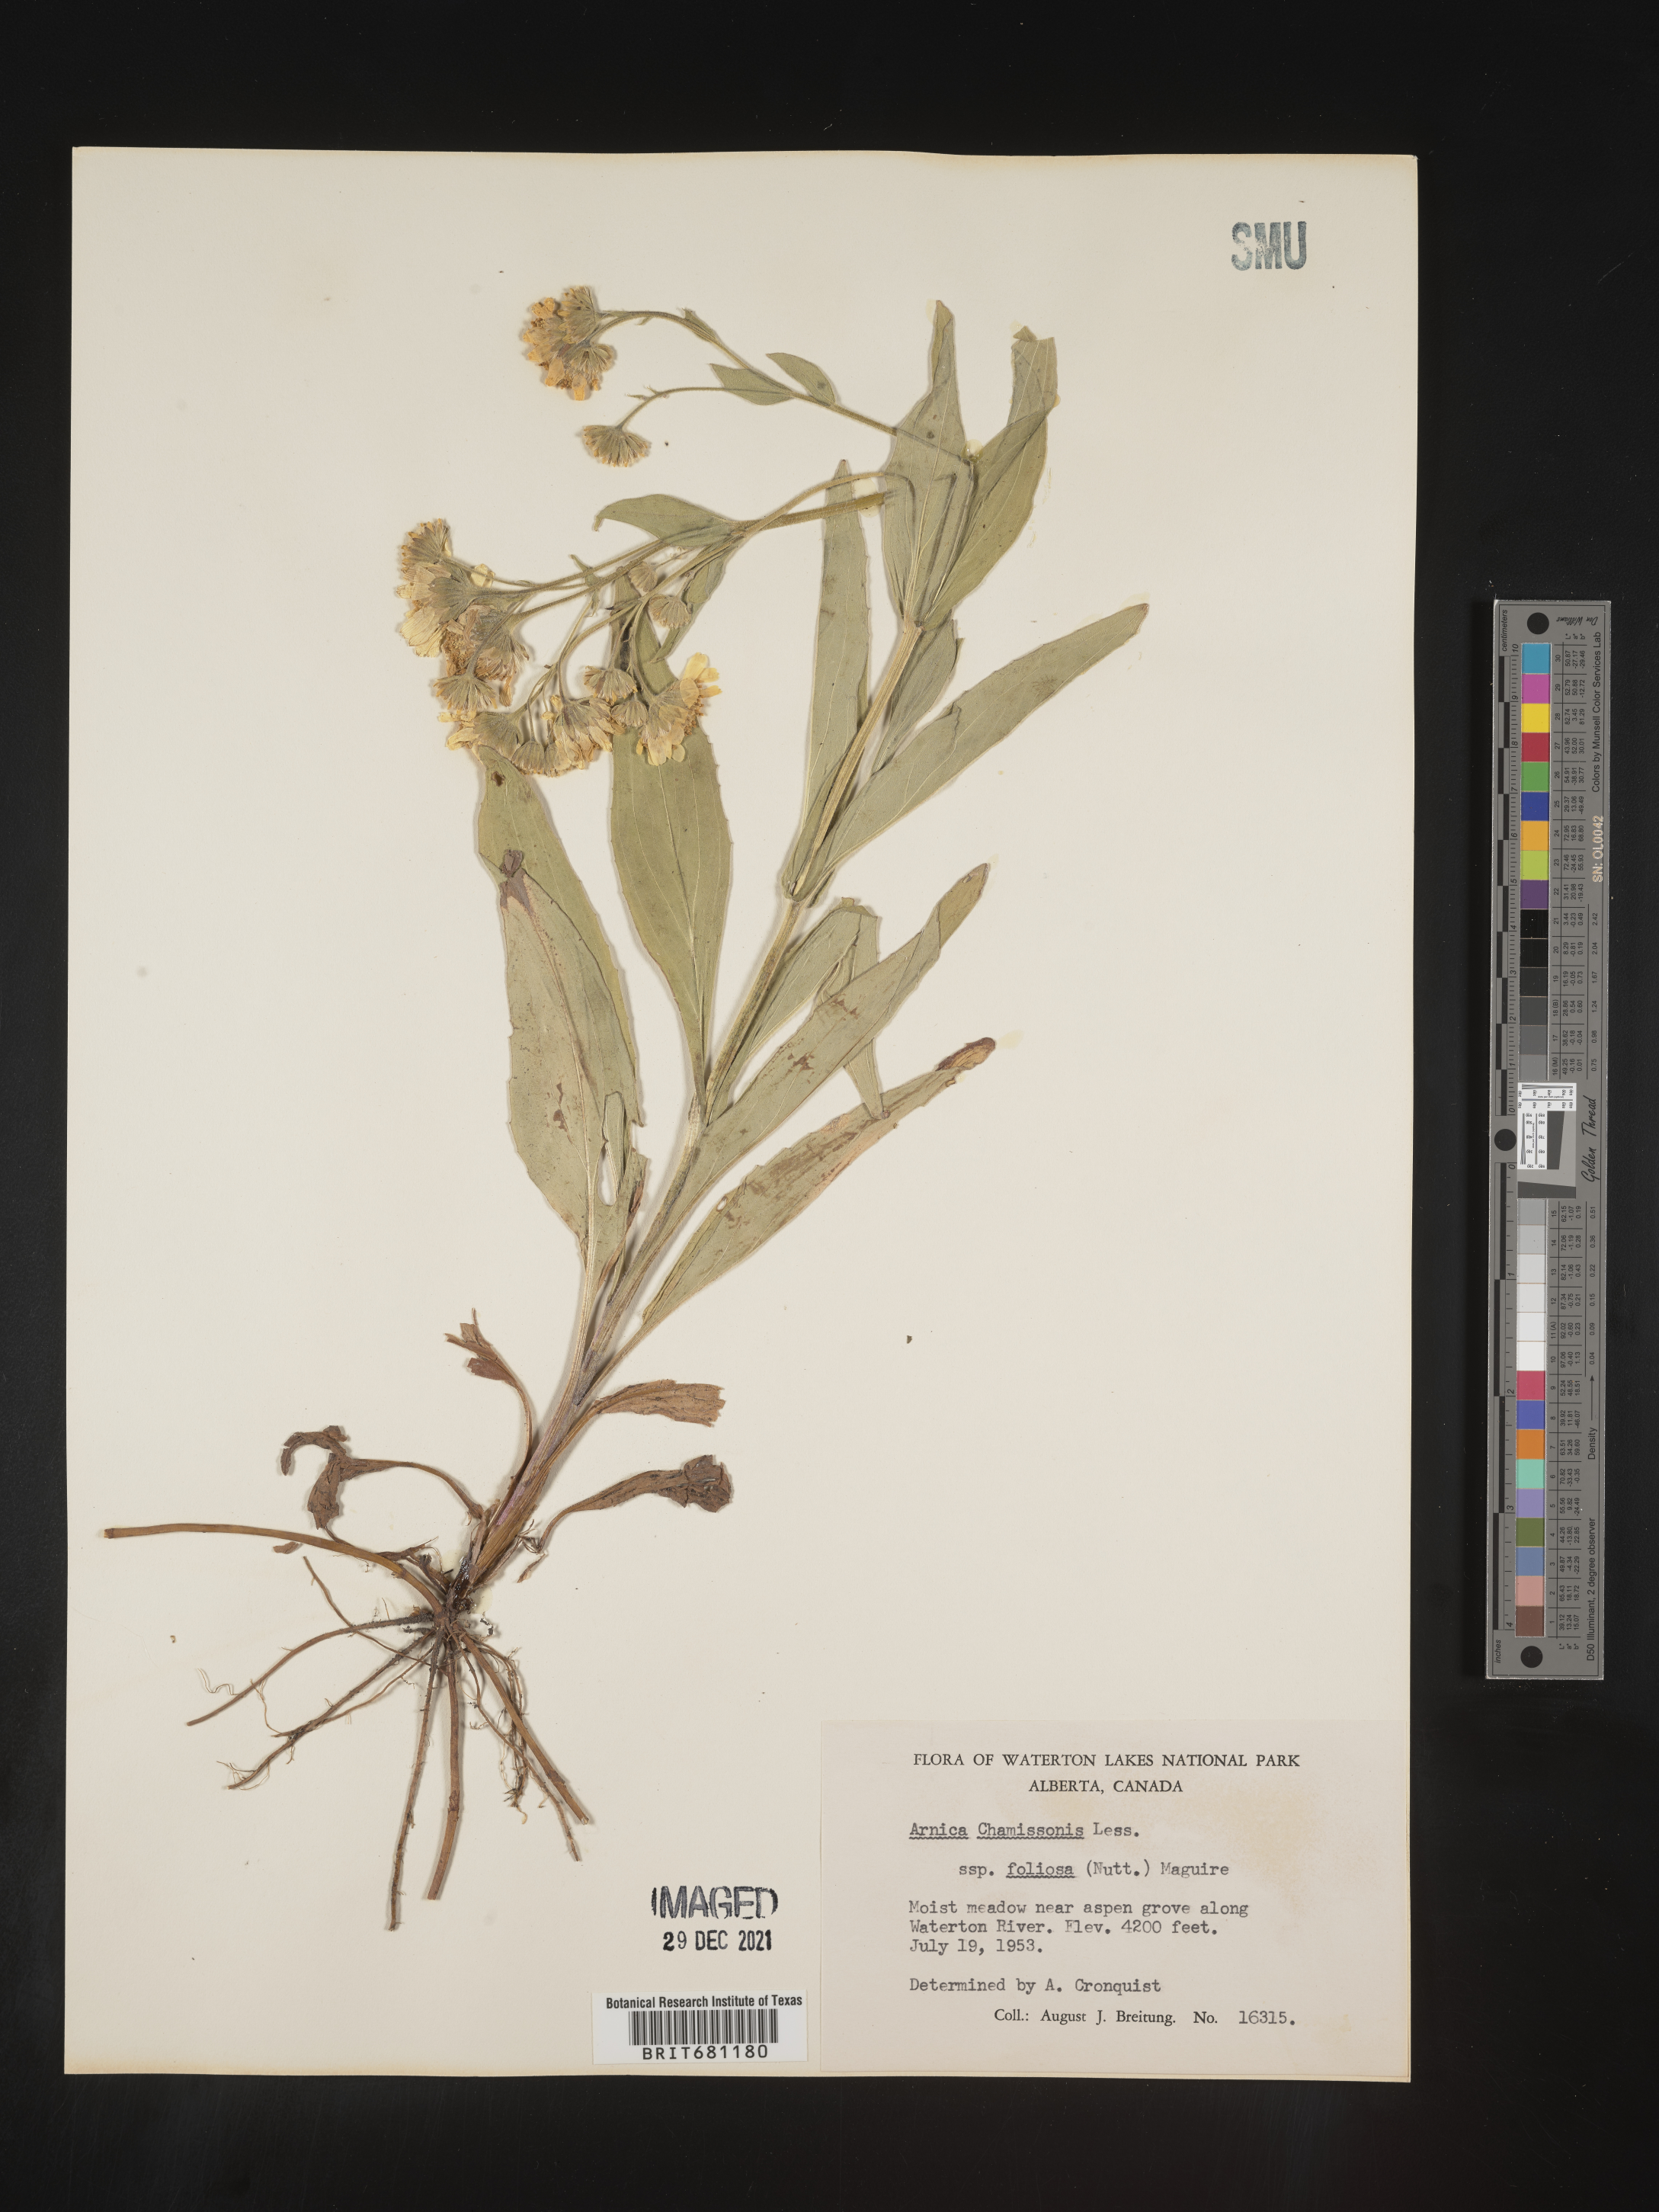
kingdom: Plantae
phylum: Tracheophyta
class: Magnoliopsida
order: Asterales
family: Asteraceae
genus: Arnica
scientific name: Arnica chamissonis
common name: Leafy arnica
